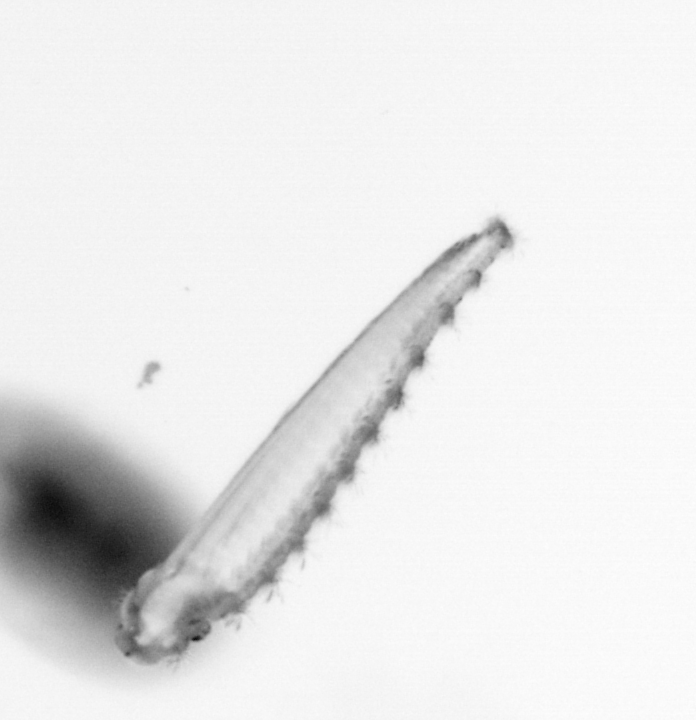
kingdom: Animalia
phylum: Annelida
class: Polychaeta
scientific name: Polychaeta
